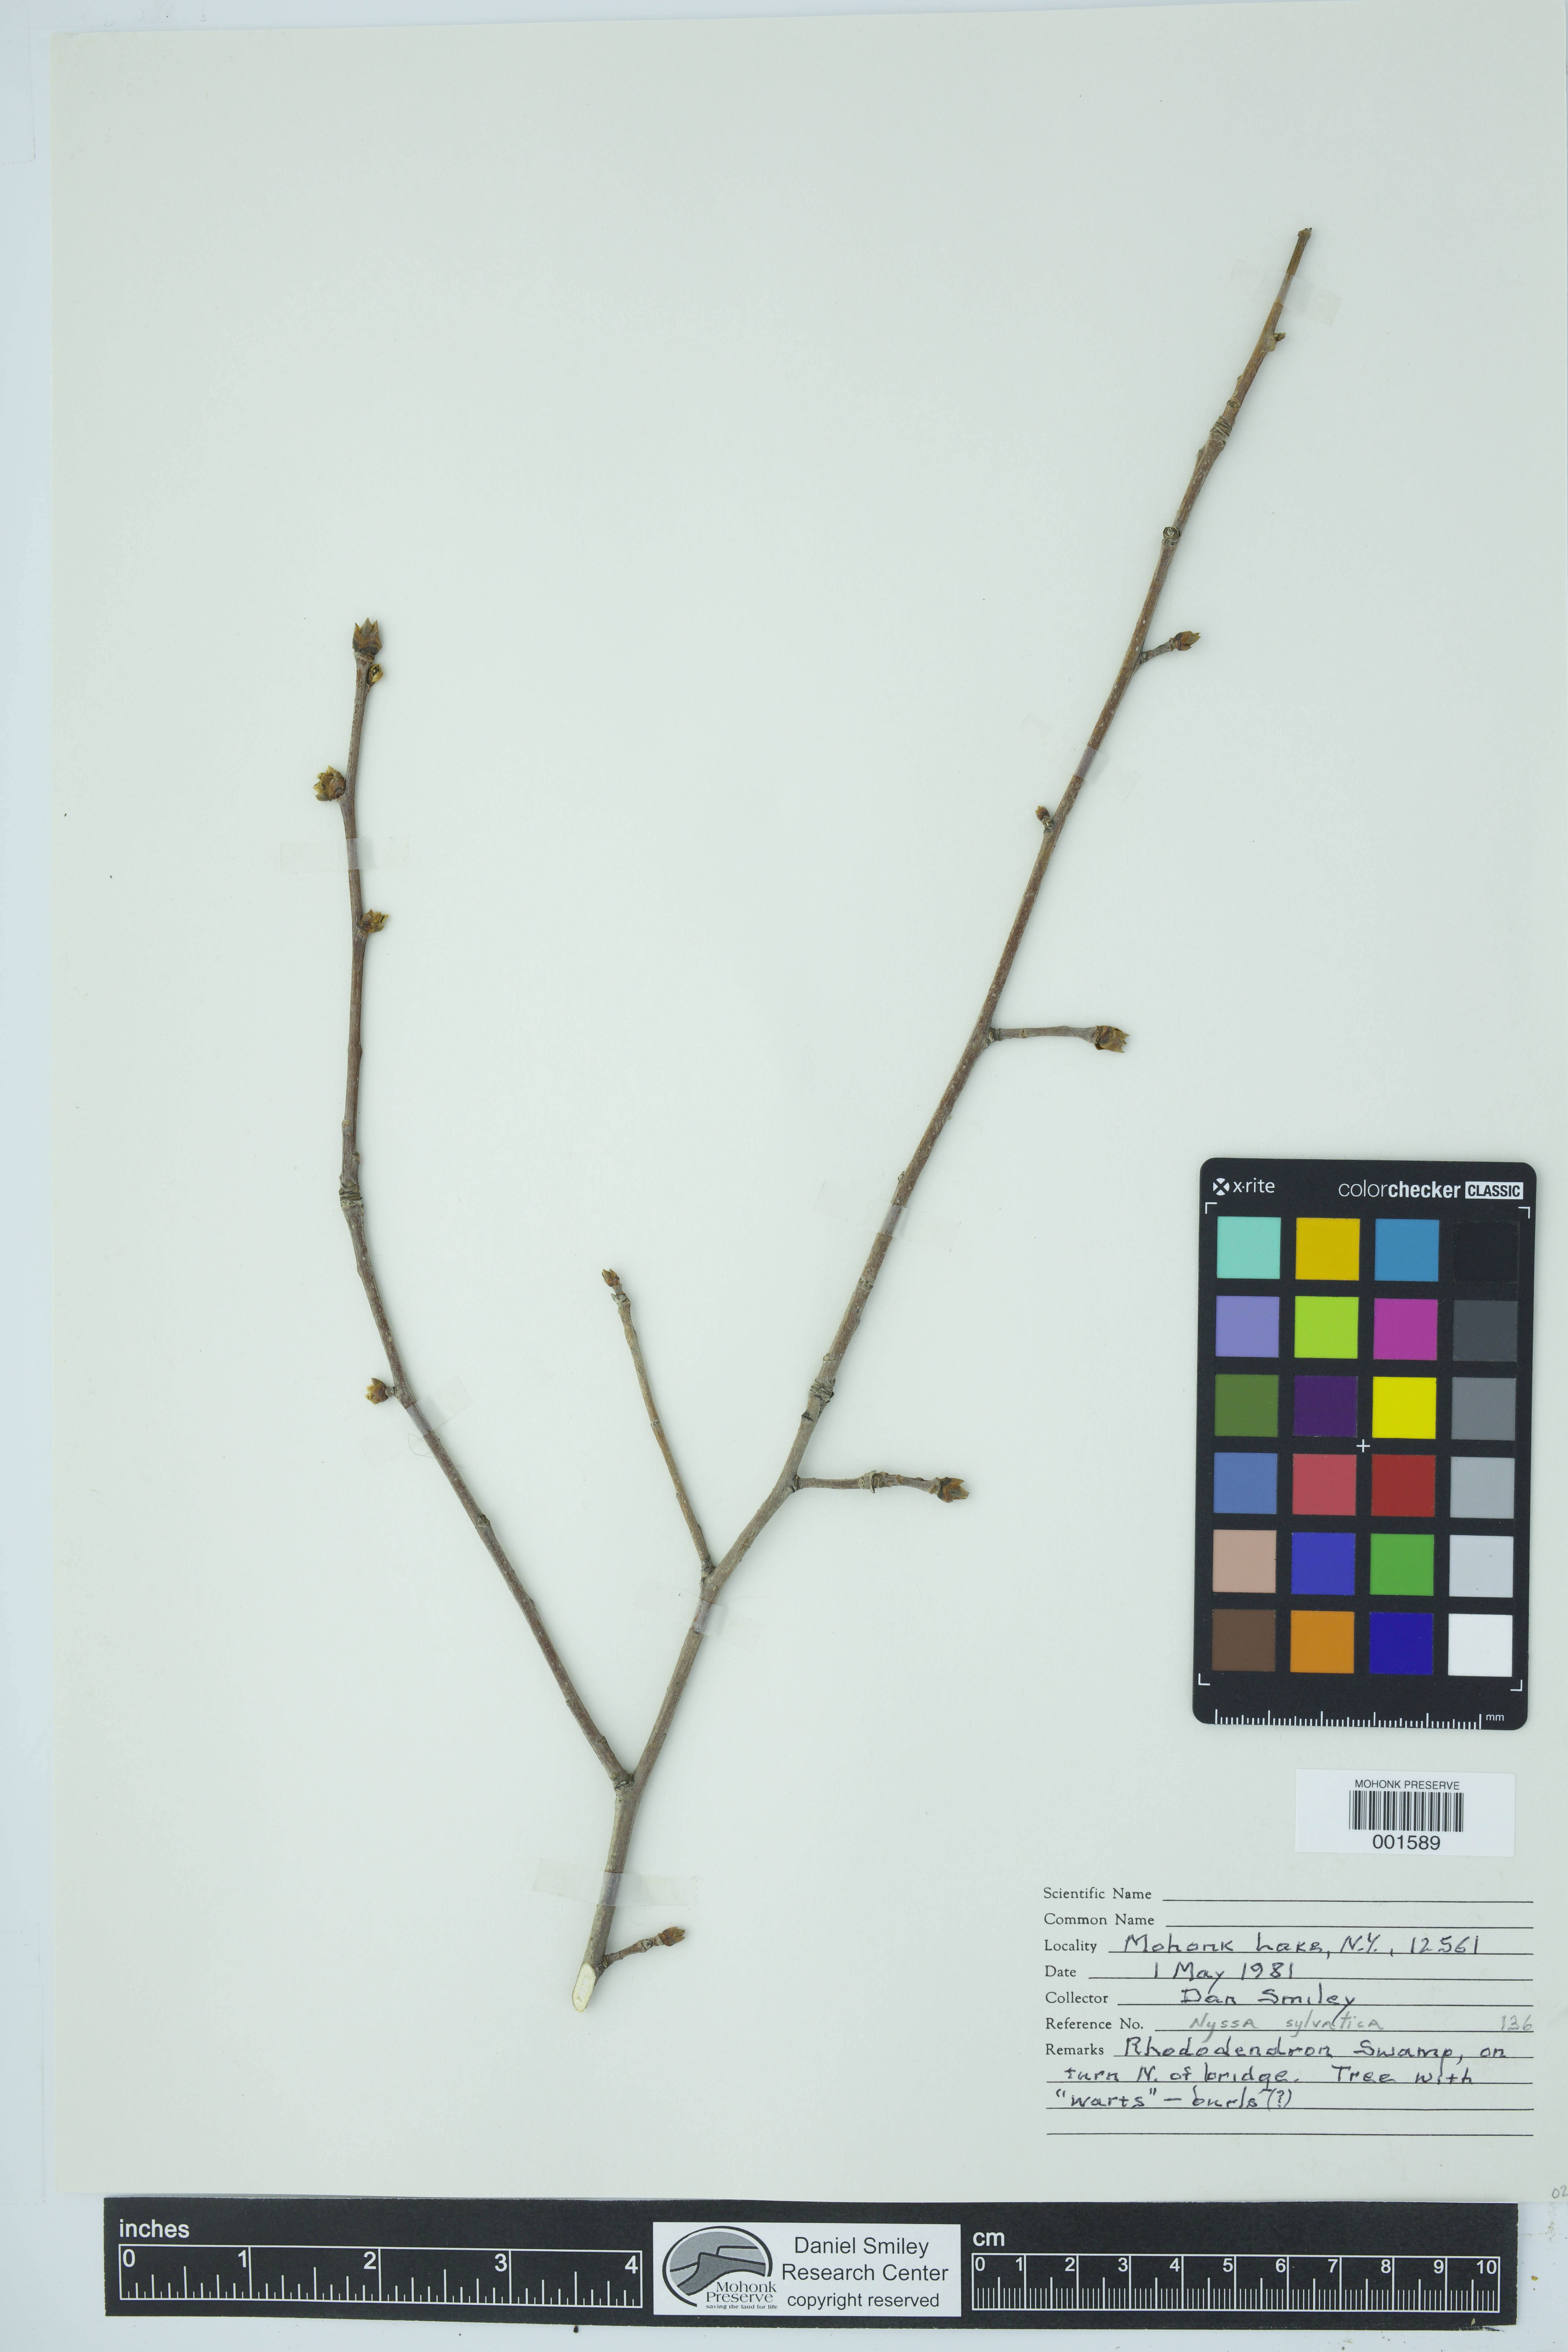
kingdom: Plantae
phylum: Tracheophyta
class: Magnoliopsida
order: Cornales
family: Nyssaceae
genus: Nyssa
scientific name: Nyssa sylvatica
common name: Black tupelo
